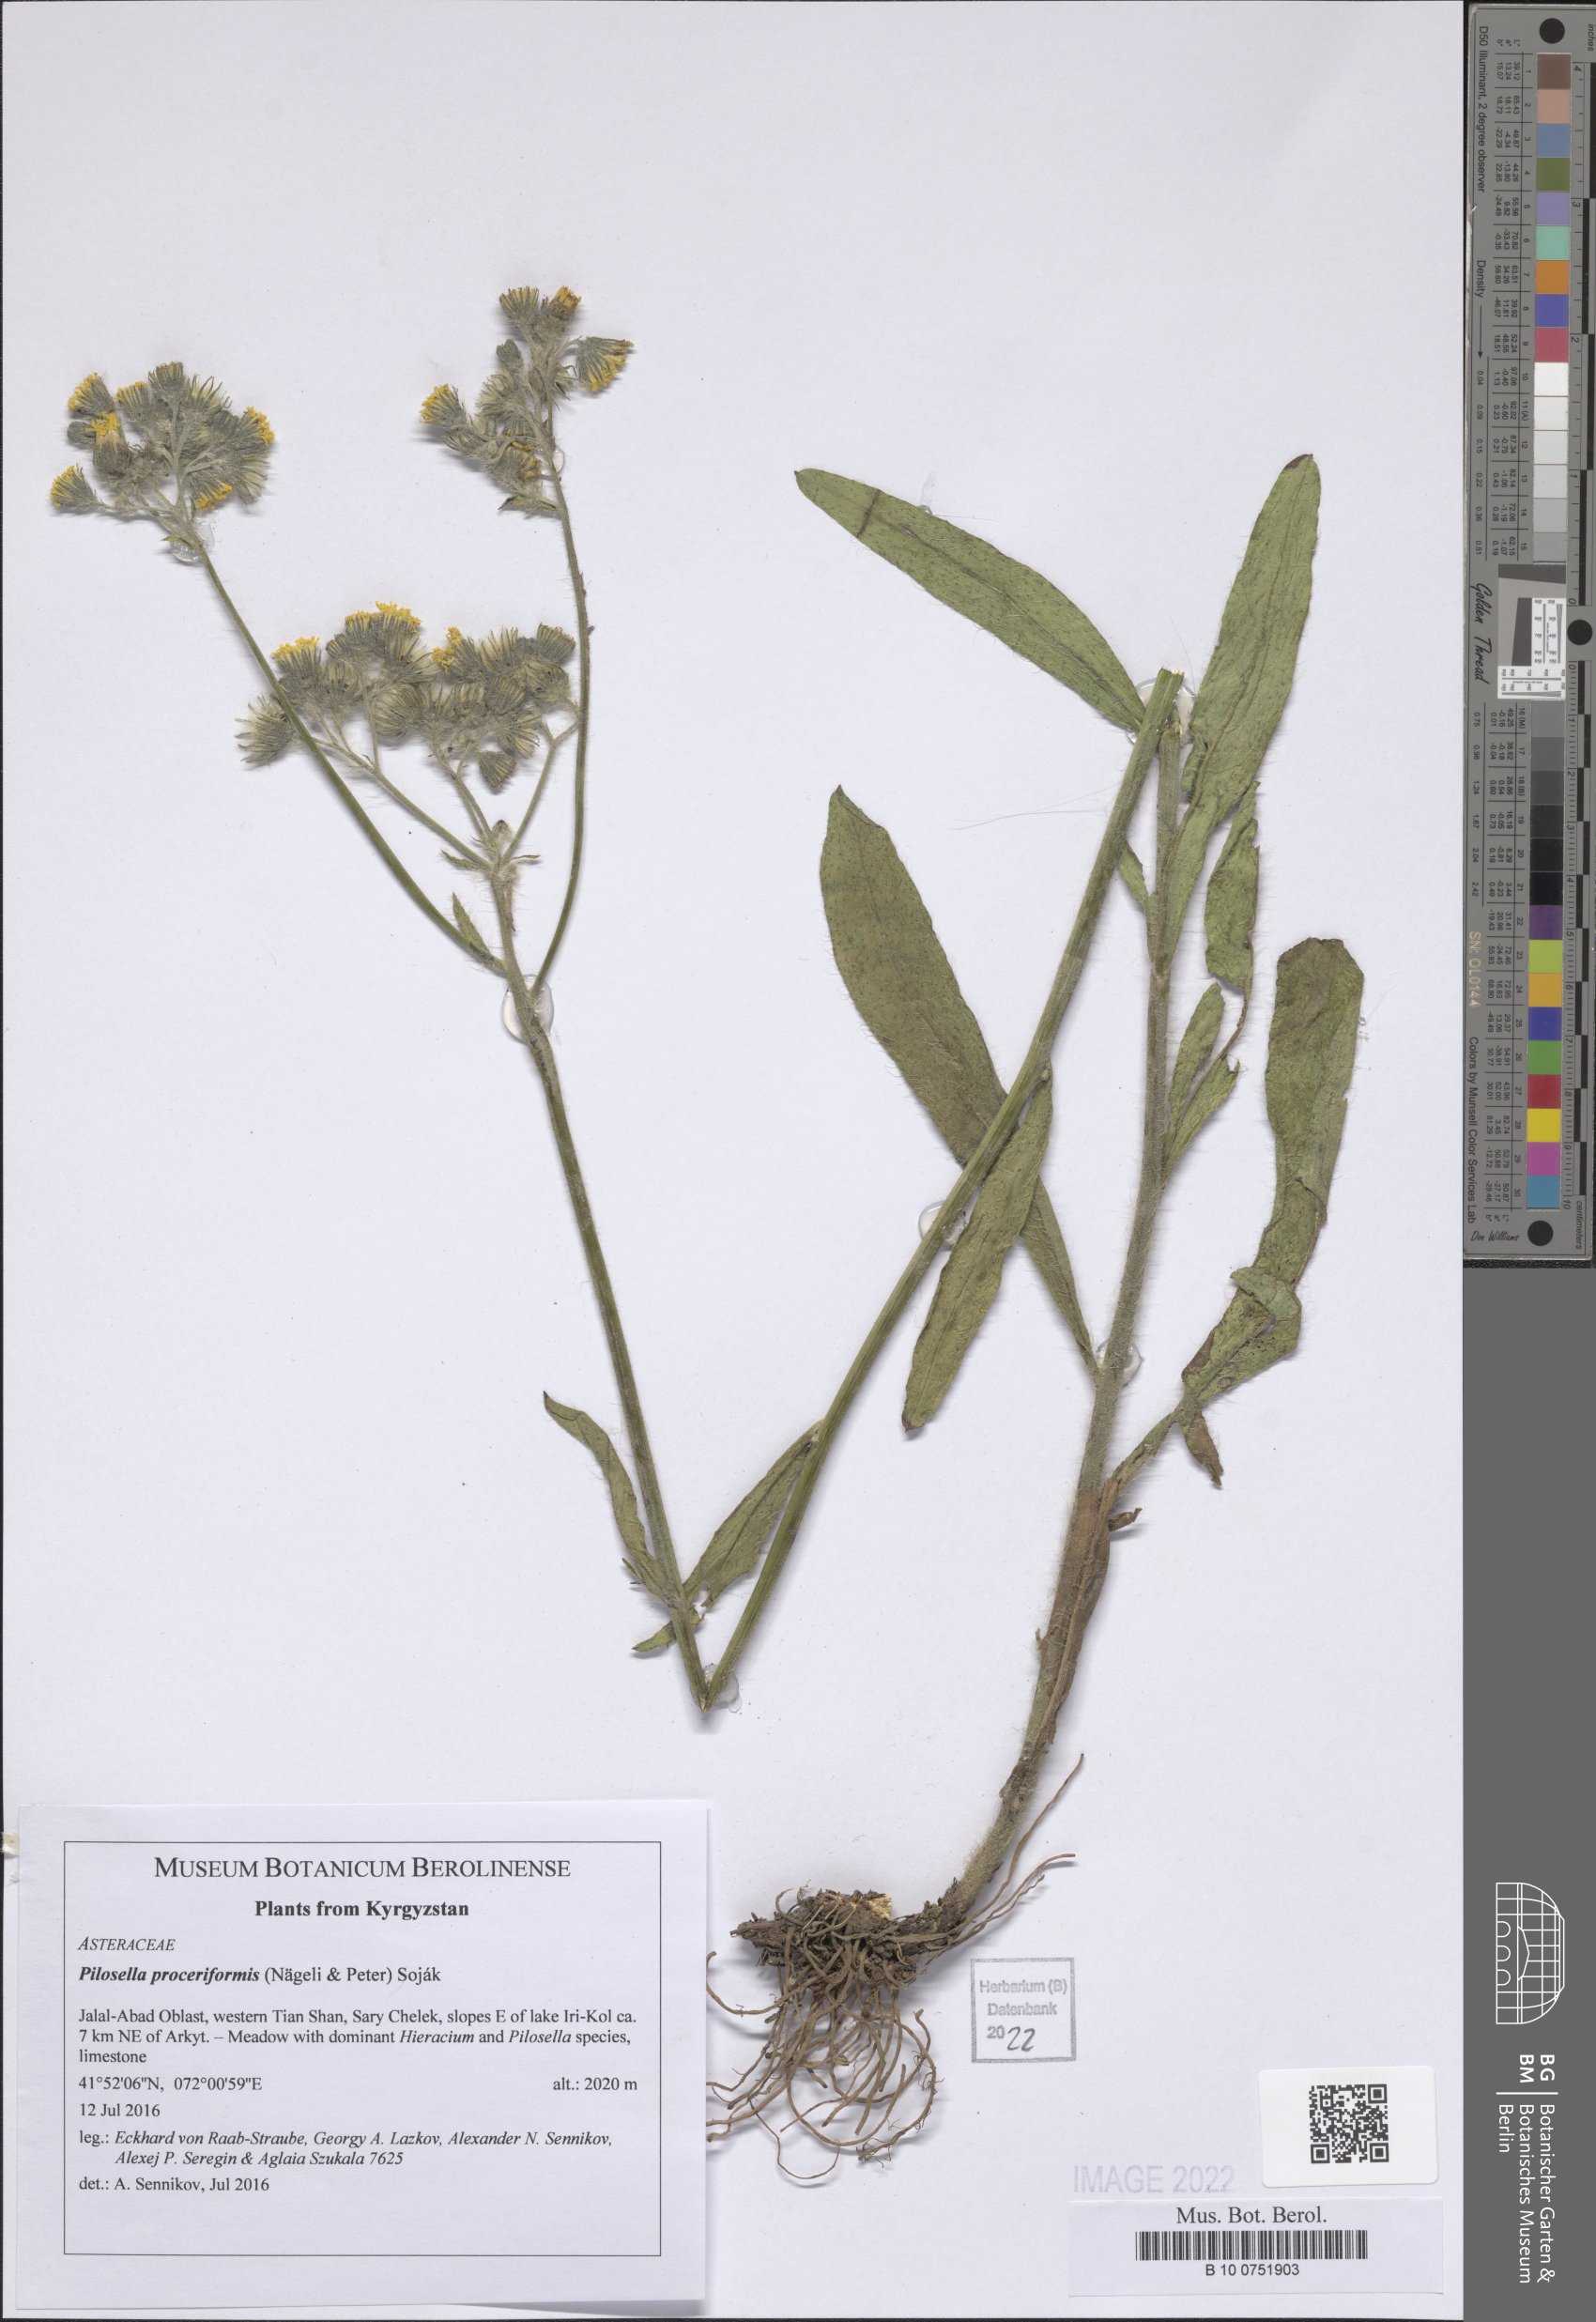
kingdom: Plantae
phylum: Tracheophyta
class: Magnoliopsida
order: Asterales
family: Asteraceae
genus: Pilosella
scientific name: Pilosella echioides
